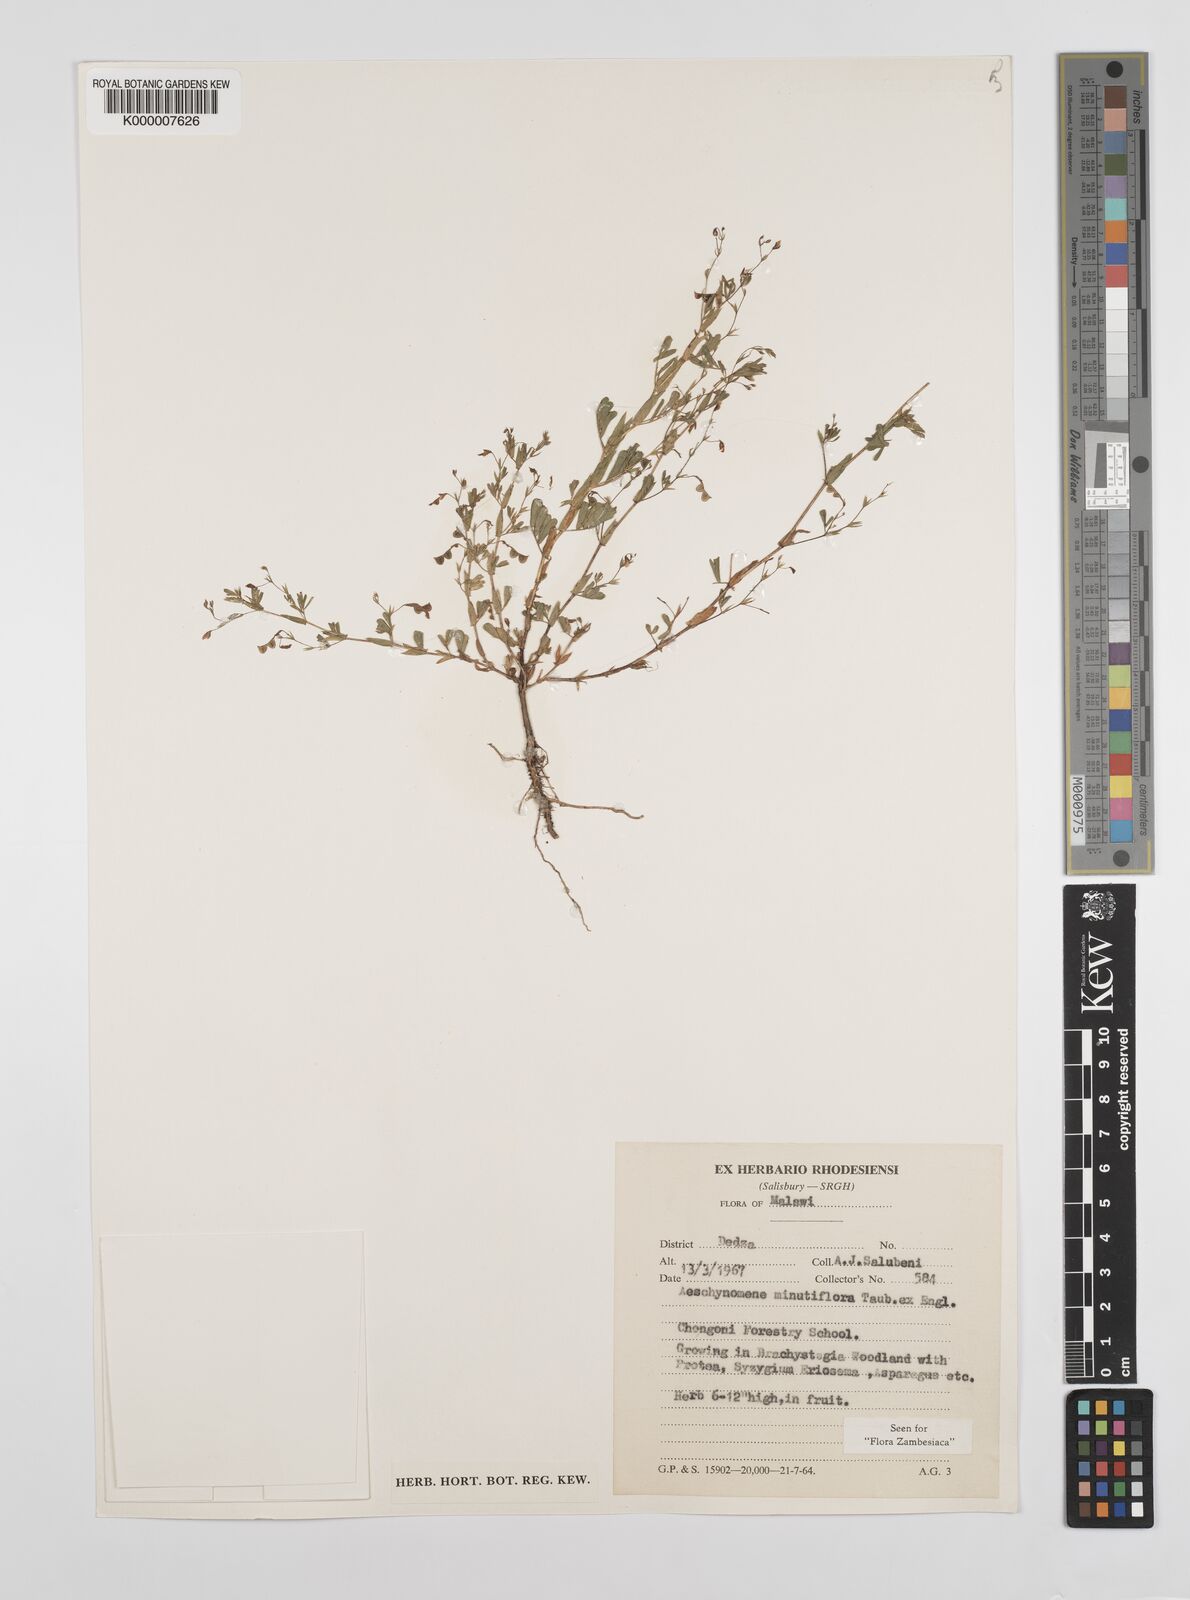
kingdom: Plantae
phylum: Tracheophyta
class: Magnoliopsida
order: Fabales
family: Fabaceae
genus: Aeschynomene
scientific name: Aeschynomene minutiflora
